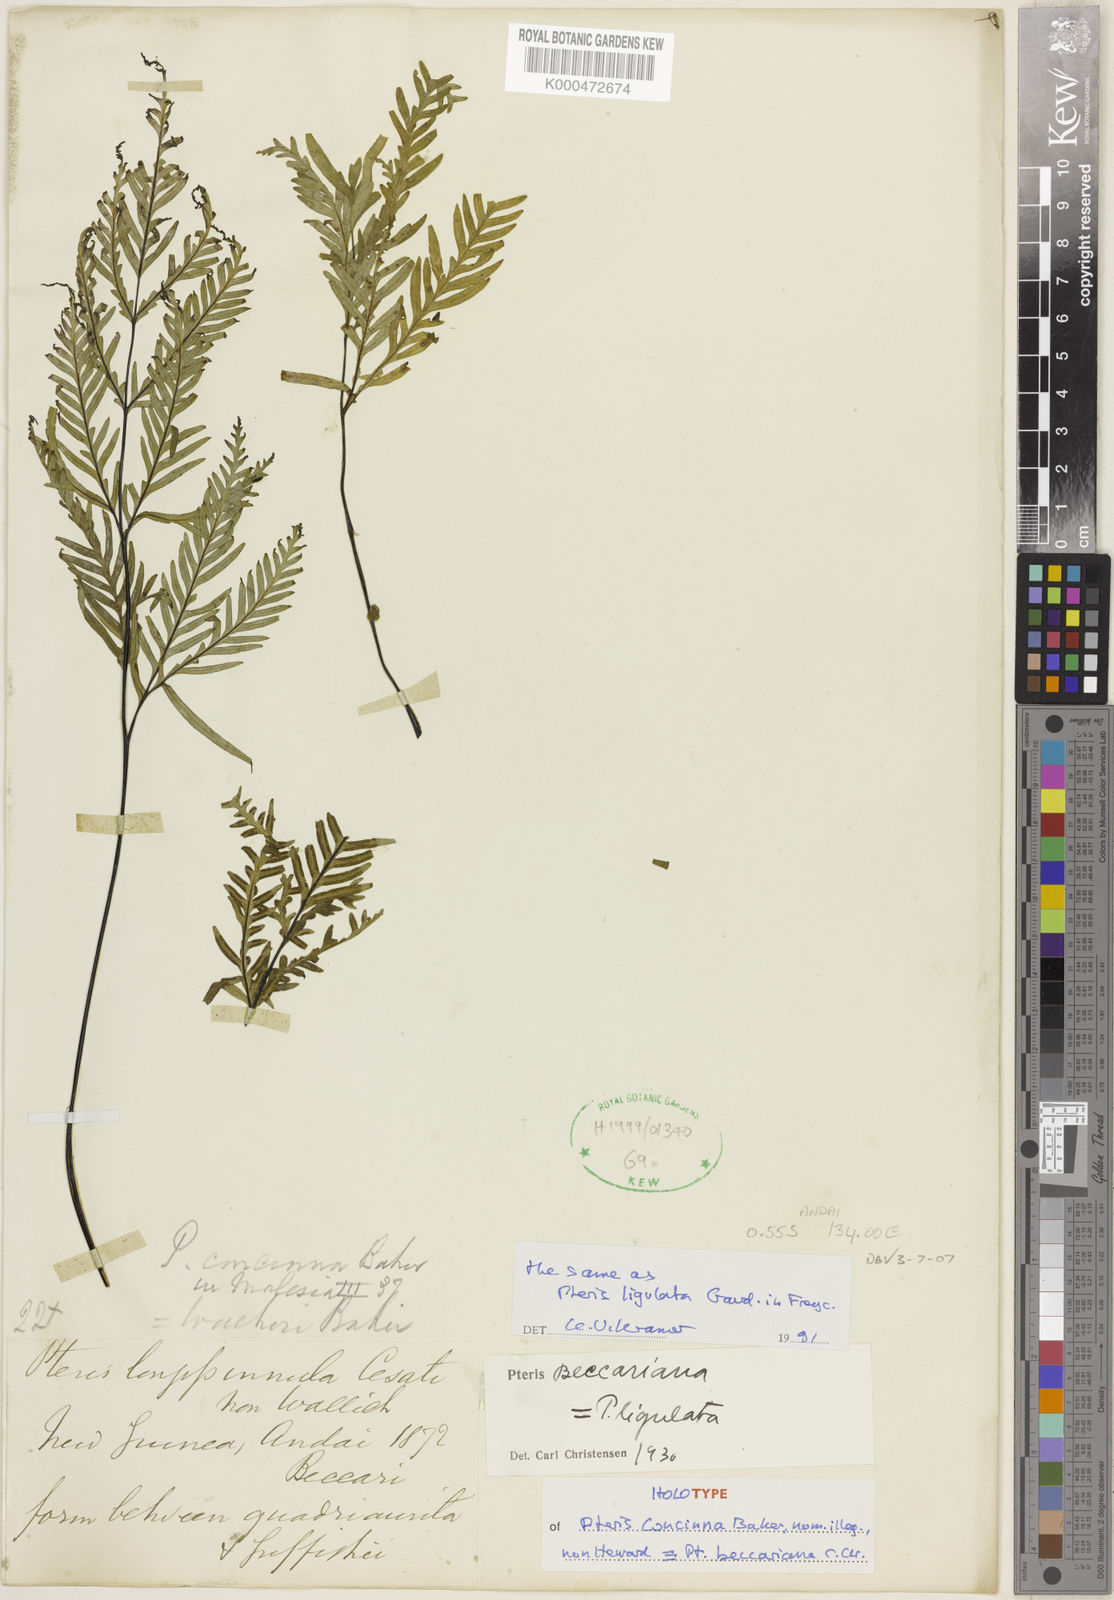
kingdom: Plantae
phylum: Tracheophyta
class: Polypodiopsida
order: Polypodiales
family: Pteridaceae
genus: Pteris
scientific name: Pteris ligulata
